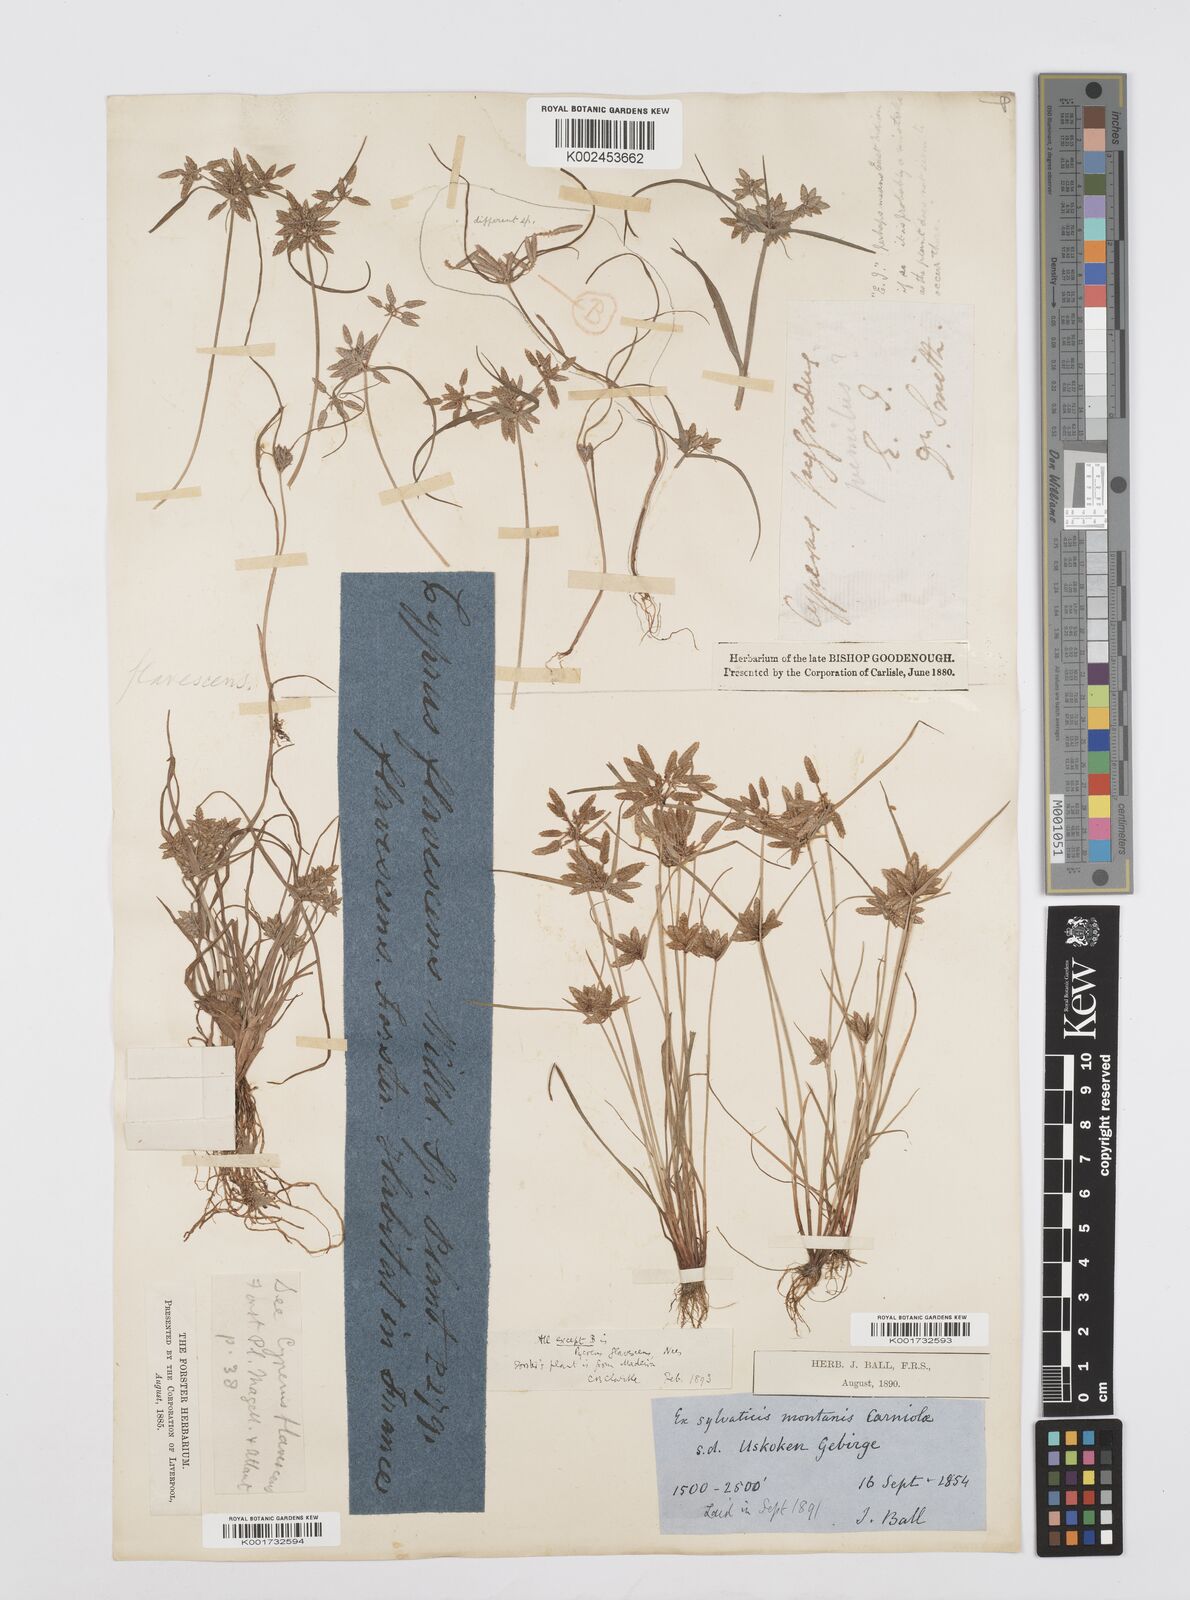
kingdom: Plantae
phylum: Tracheophyta
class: Liliopsida
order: Poales
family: Cyperaceae
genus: Cyperus
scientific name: Cyperus flavescens
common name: Yellow galingale
